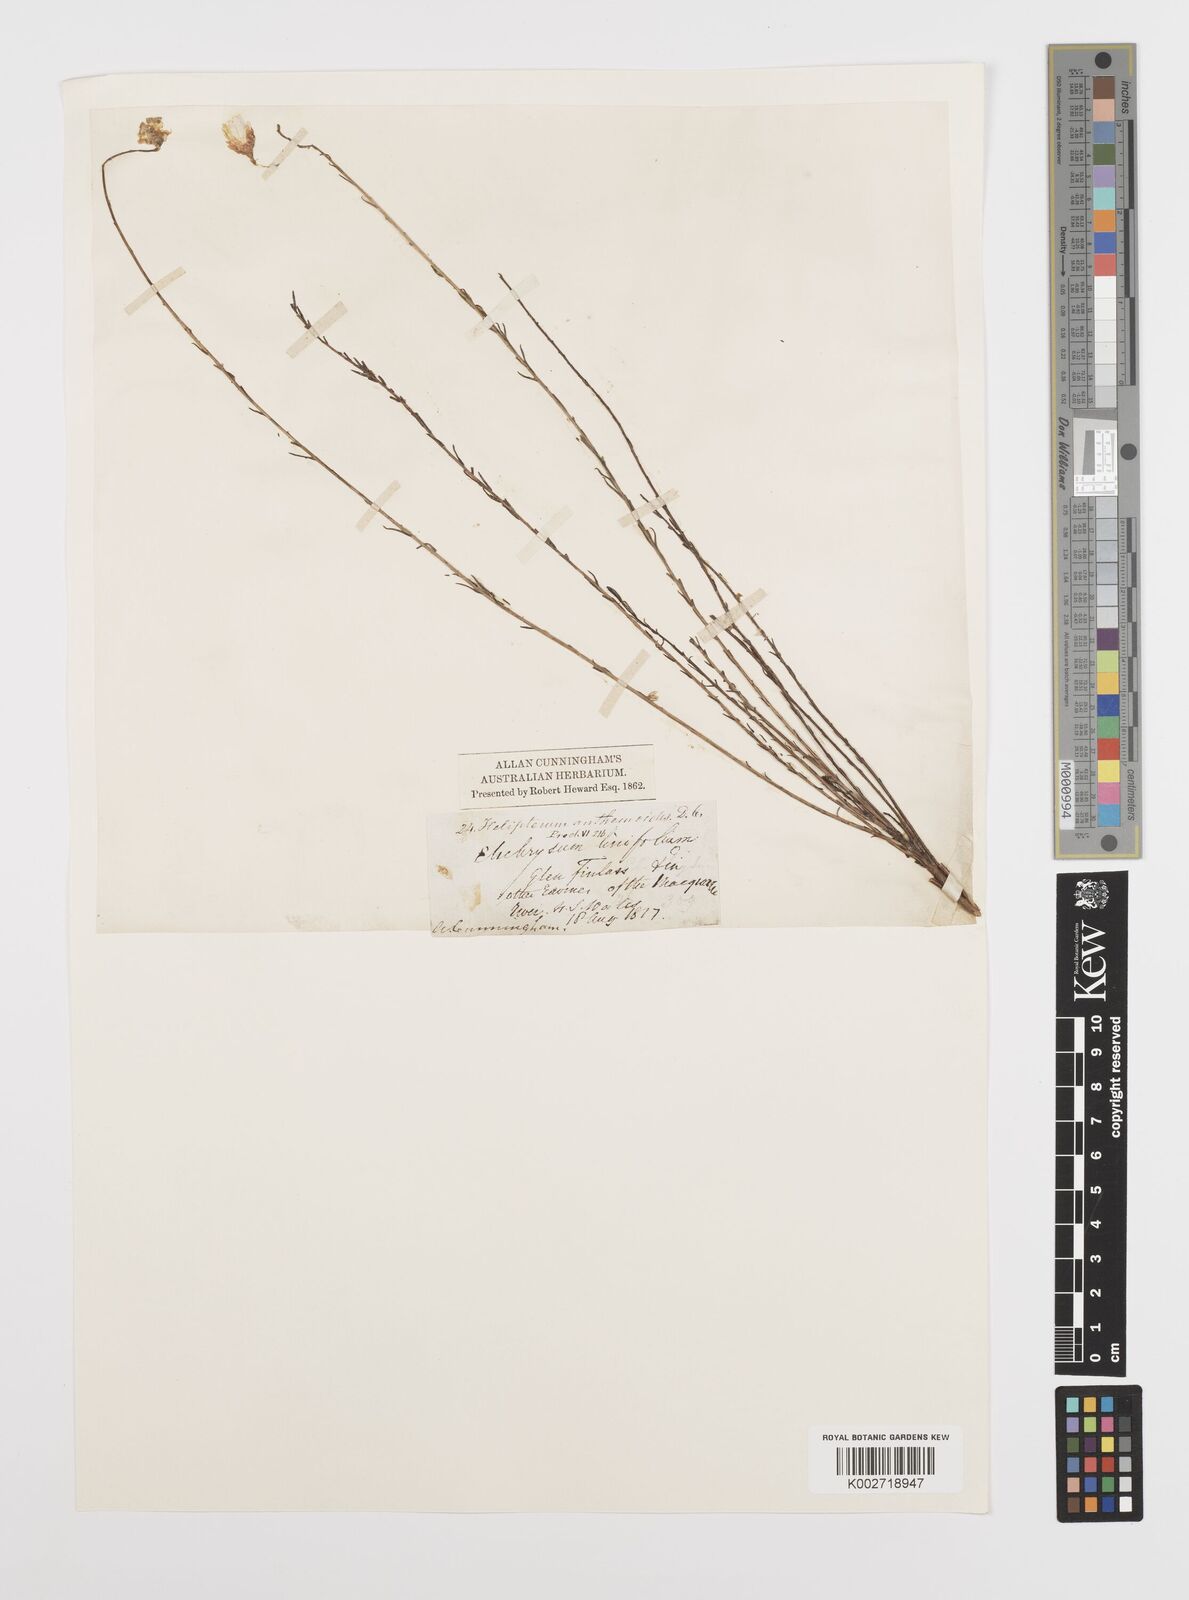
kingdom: Plantae
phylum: Tracheophyta
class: Magnoliopsida
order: Asterales
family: Asteraceae
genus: Rhodanthe
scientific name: Rhodanthe anthemoides
